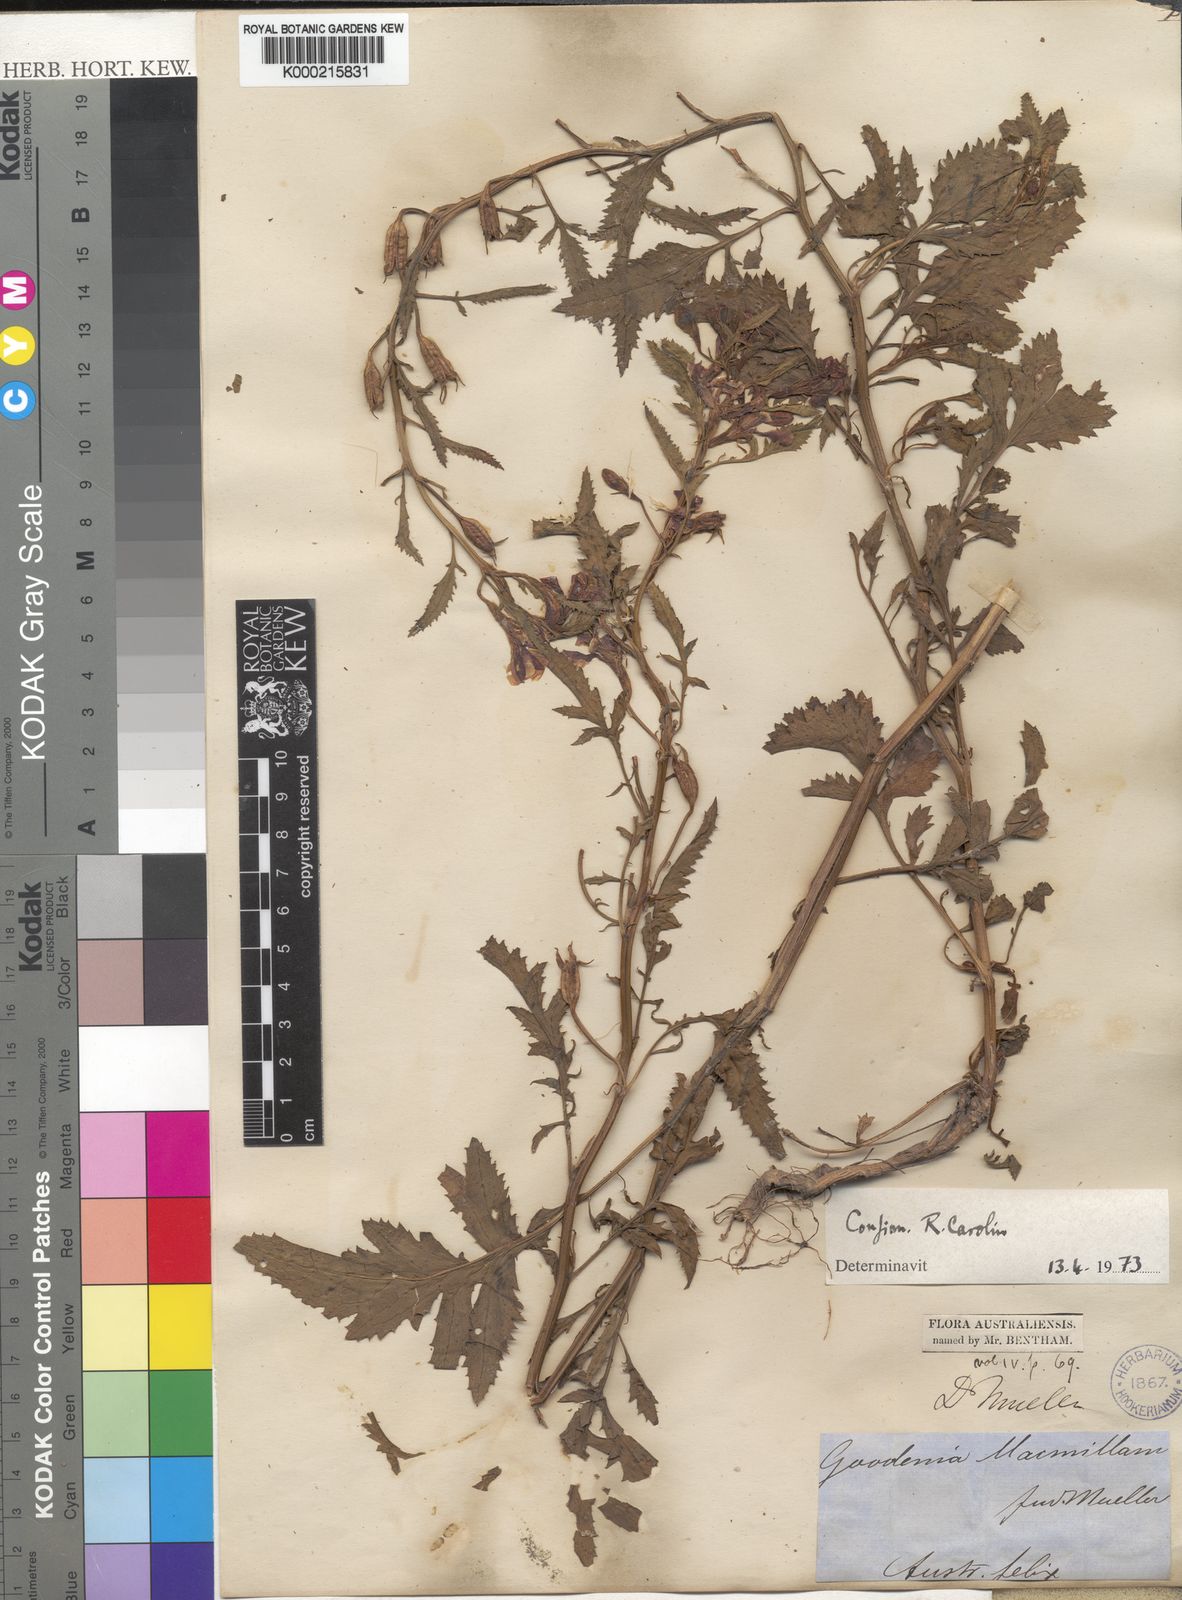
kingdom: Plantae
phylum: Tracheophyta
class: Magnoliopsida
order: Asterales
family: Goodeniaceae
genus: Goodenia
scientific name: Goodenia macmillanii
